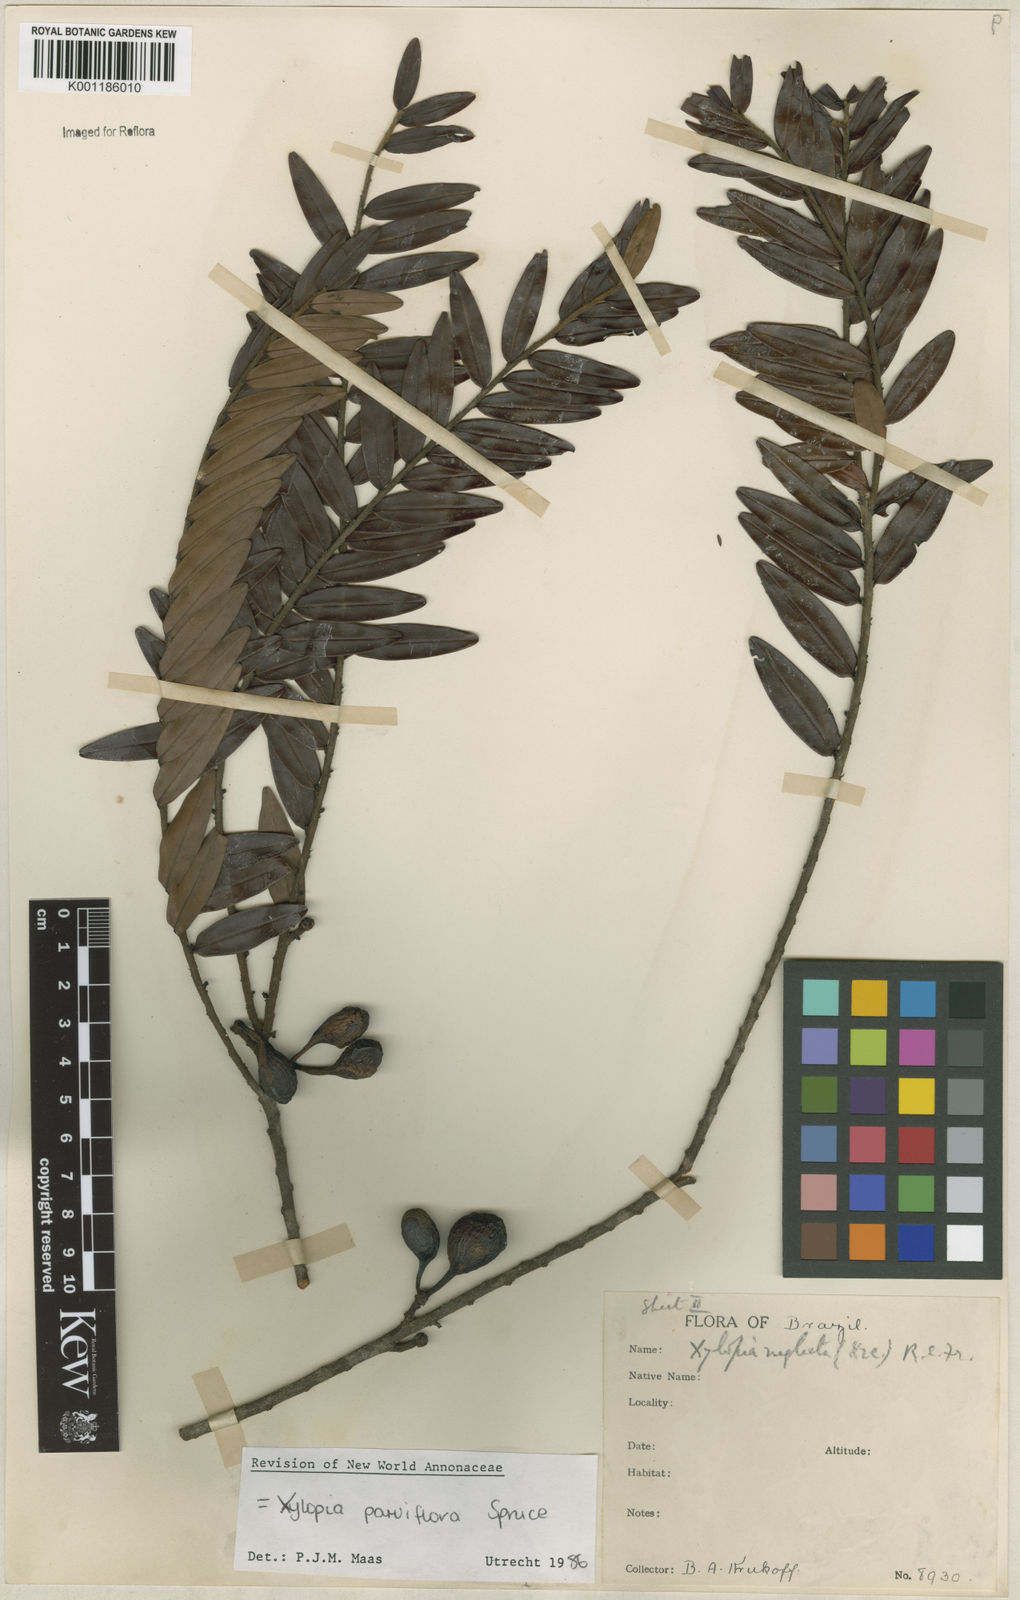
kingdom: Plantae
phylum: Tracheophyta
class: Magnoliopsida
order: Magnoliales
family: Annonaceae
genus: Xylopia
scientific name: Xylopia neglecta
